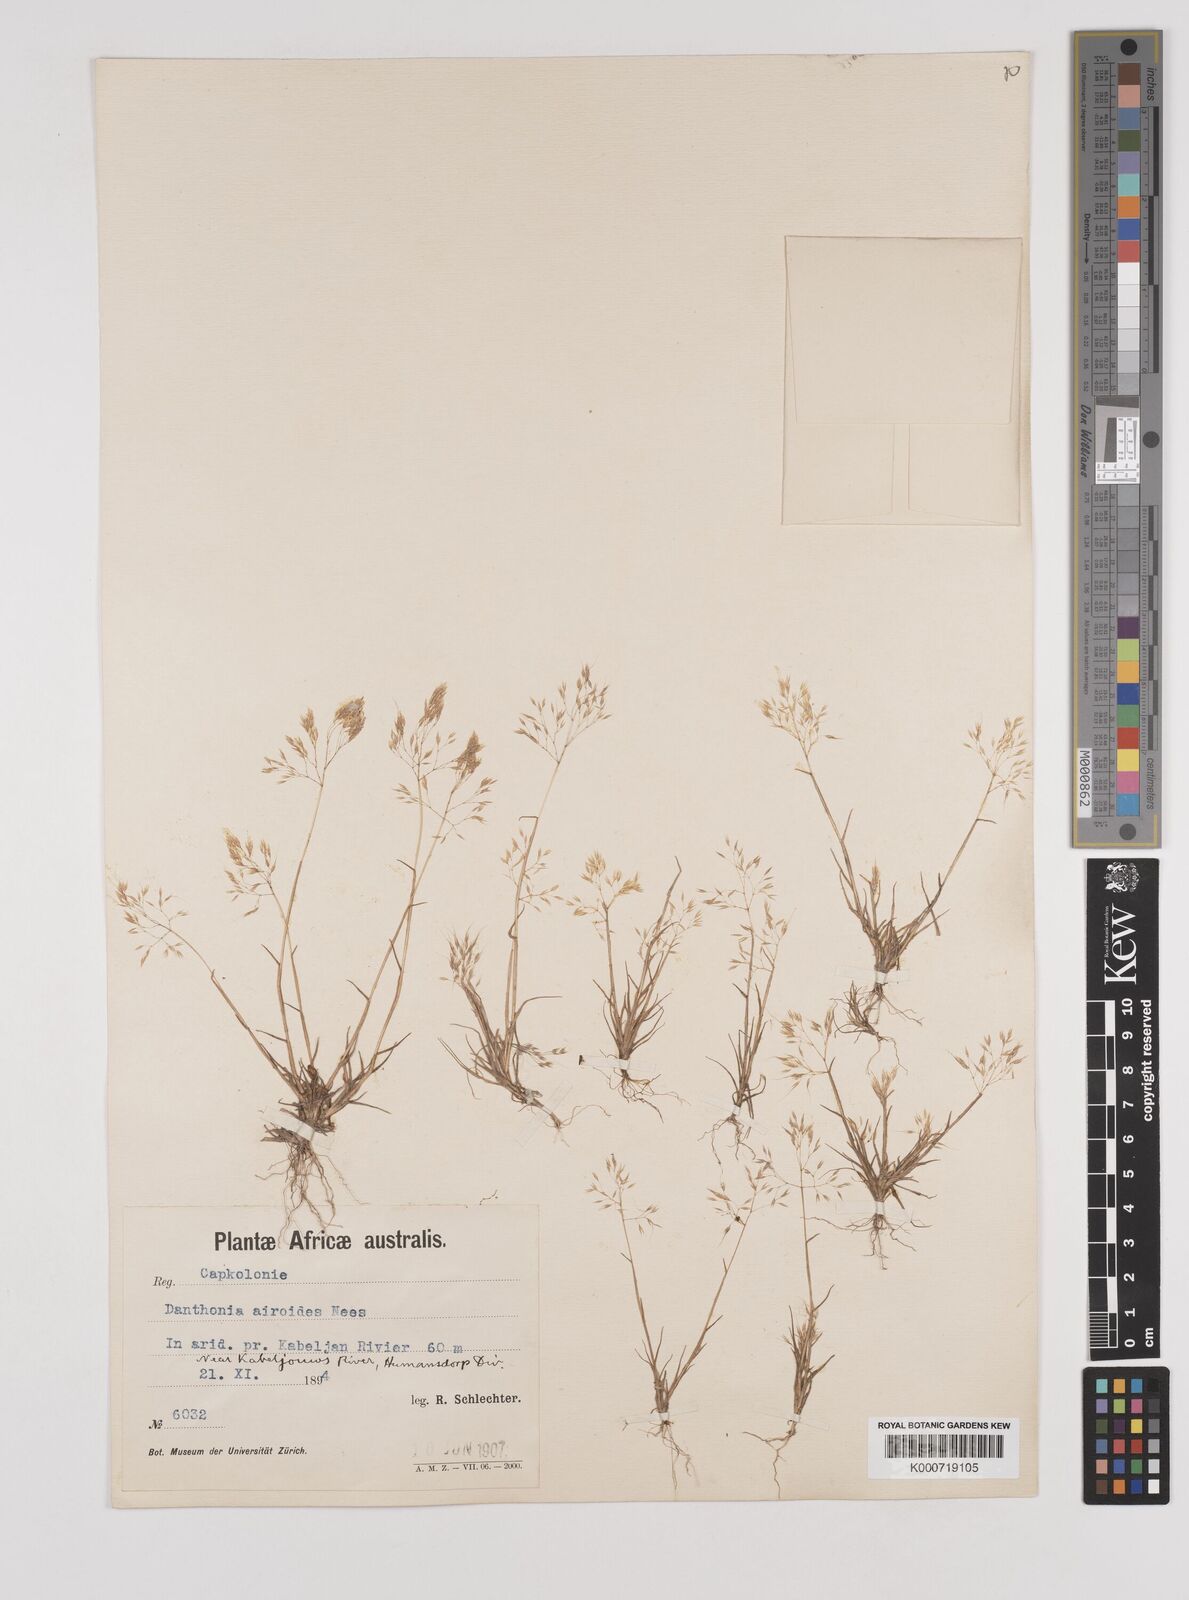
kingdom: Plantae
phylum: Tracheophyta
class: Liliopsida
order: Poales
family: Poaceae
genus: Pentameris
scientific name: Pentameris airoides
